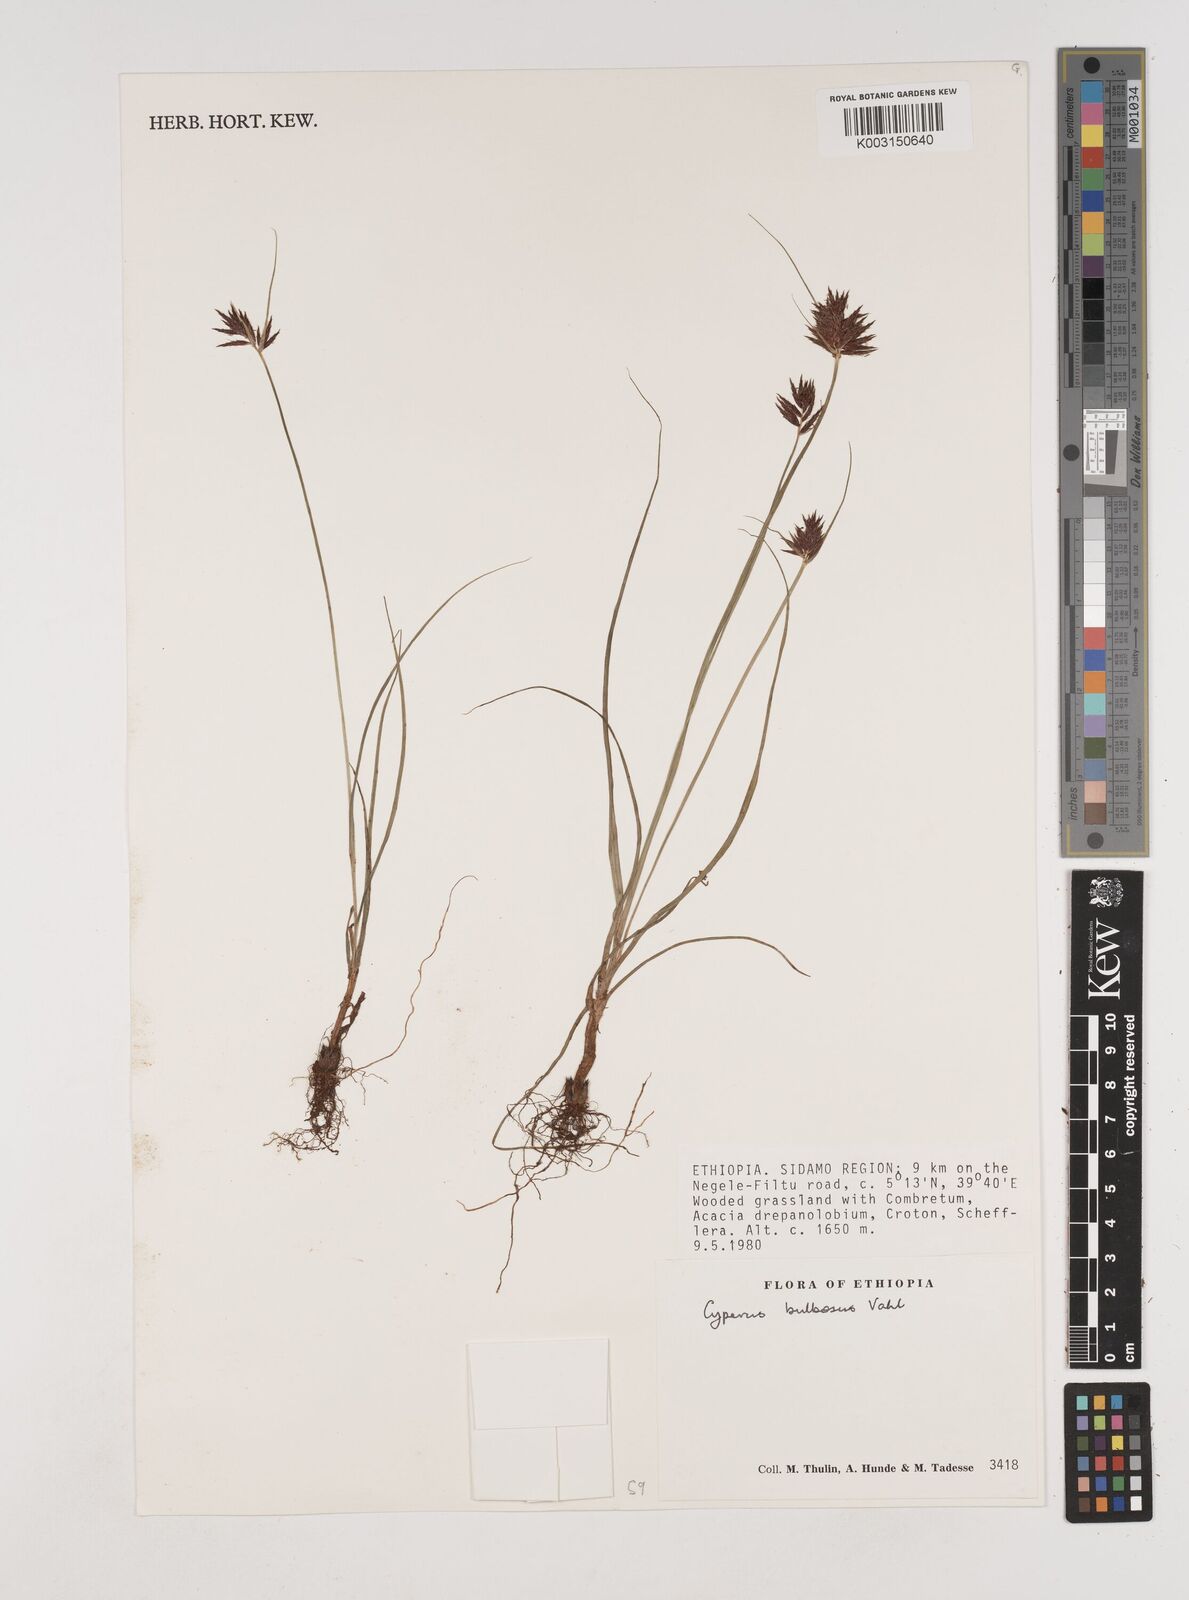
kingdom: Plantae
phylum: Tracheophyta
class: Liliopsida
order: Poales
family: Cyperaceae
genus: Cyperus
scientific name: Cyperus bulbosus
